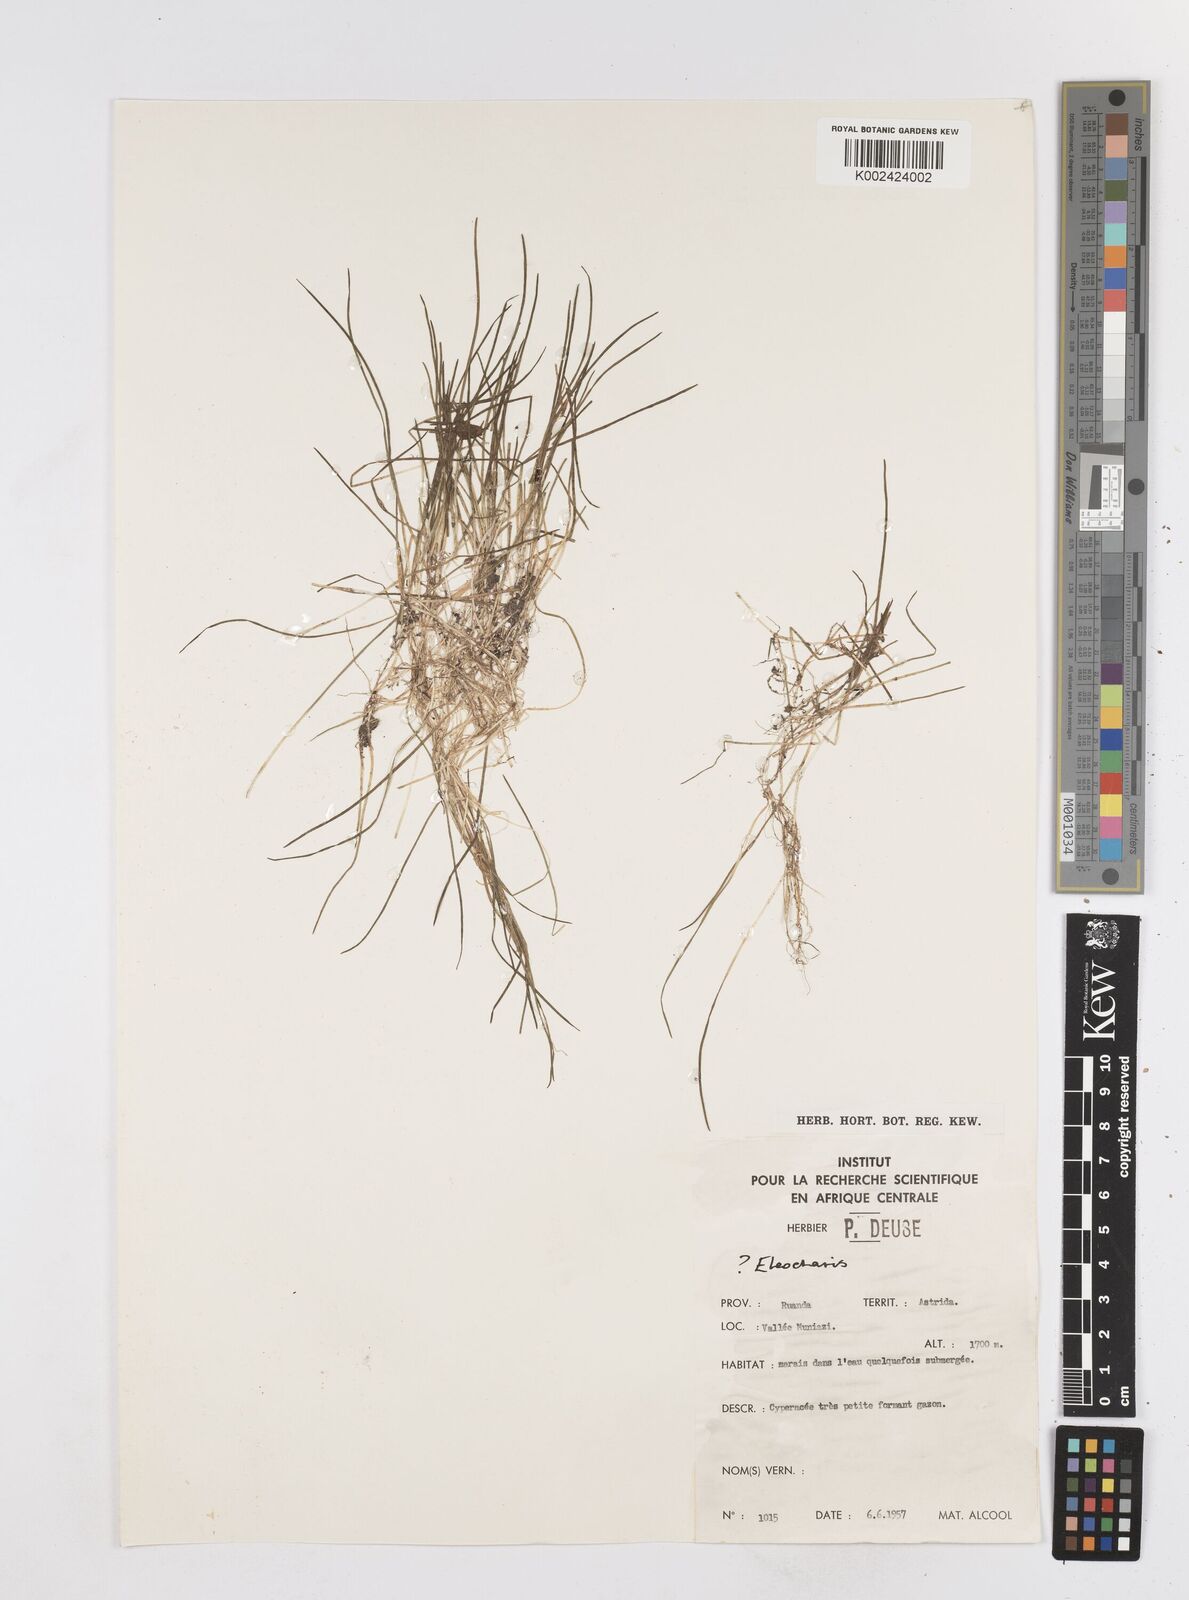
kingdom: Plantae
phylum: Tracheophyta
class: Liliopsida
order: Poales
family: Cyperaceae
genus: Eleocharis
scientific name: Eleocharis
